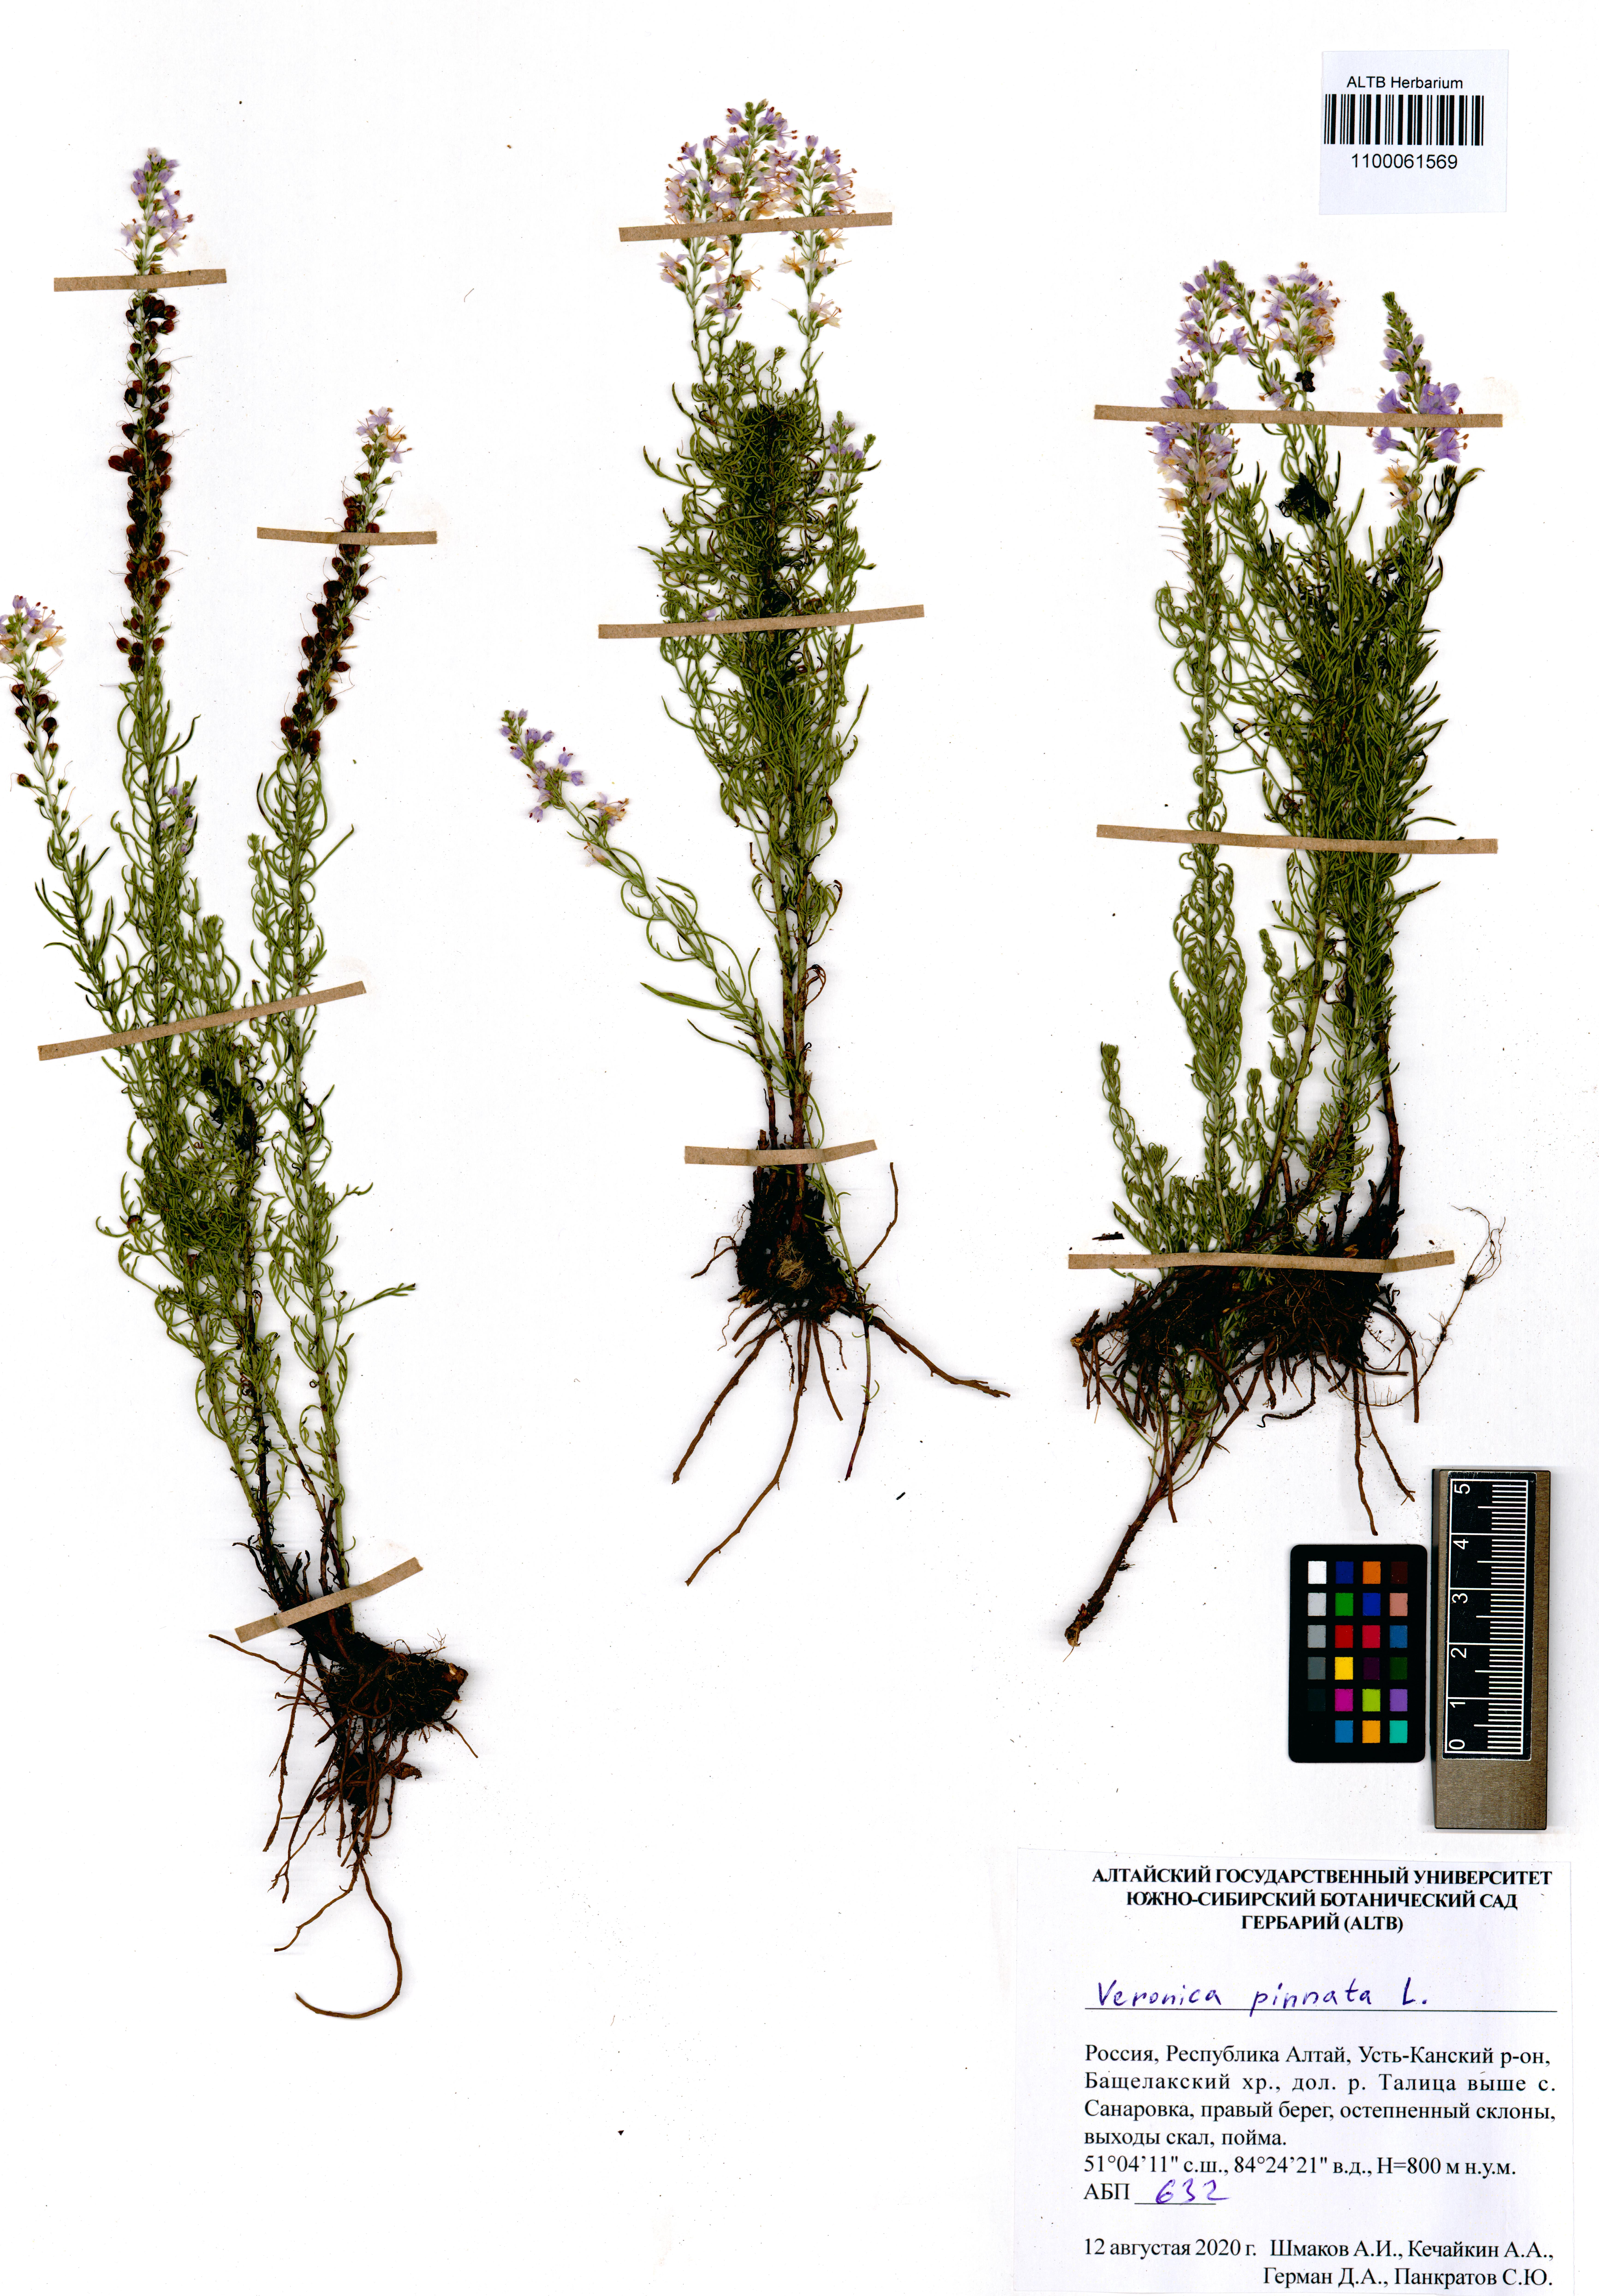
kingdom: Plantae
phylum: Tracheophyta
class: Magnoliopsida
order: Lamiales
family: Plantaginaceae
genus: Veronica
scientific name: Veronica pinnata
